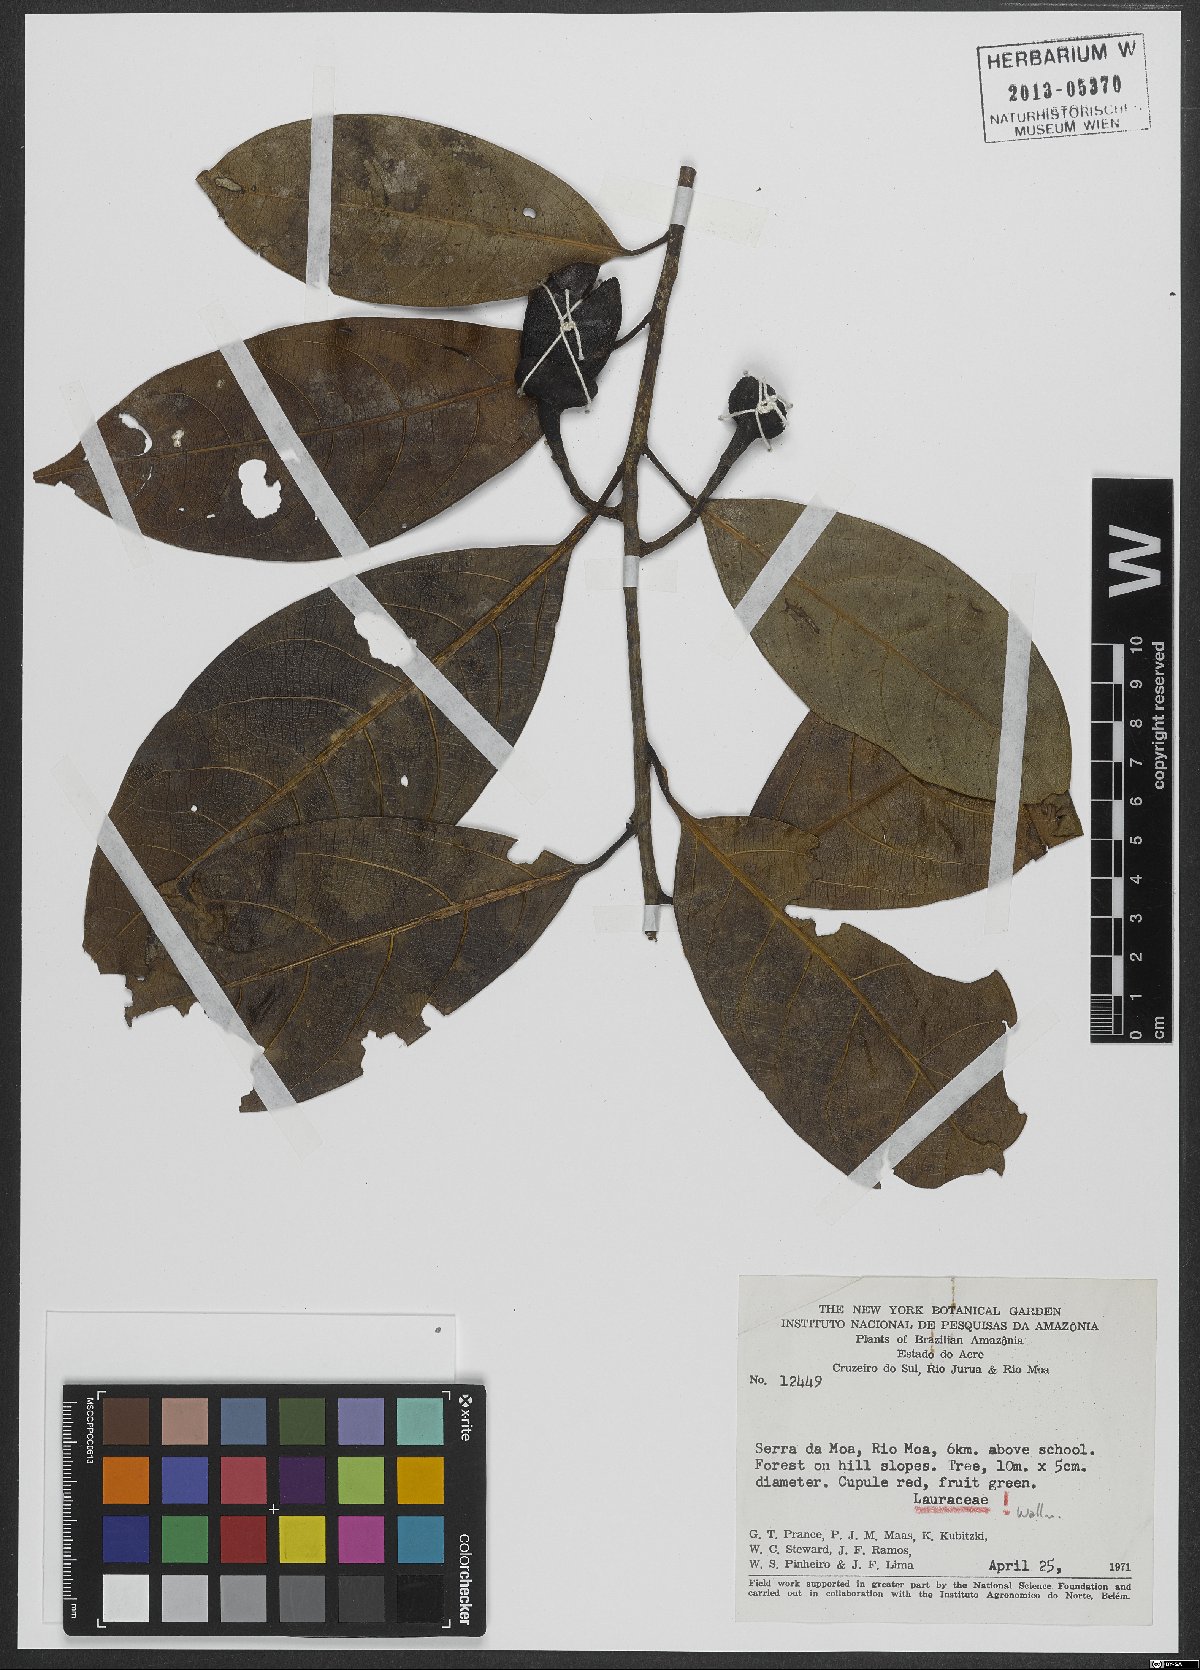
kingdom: Plantae
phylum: Tracheophyta
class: Magnoliopsida
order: Laurales
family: Lauraceae
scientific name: Lauraceae
